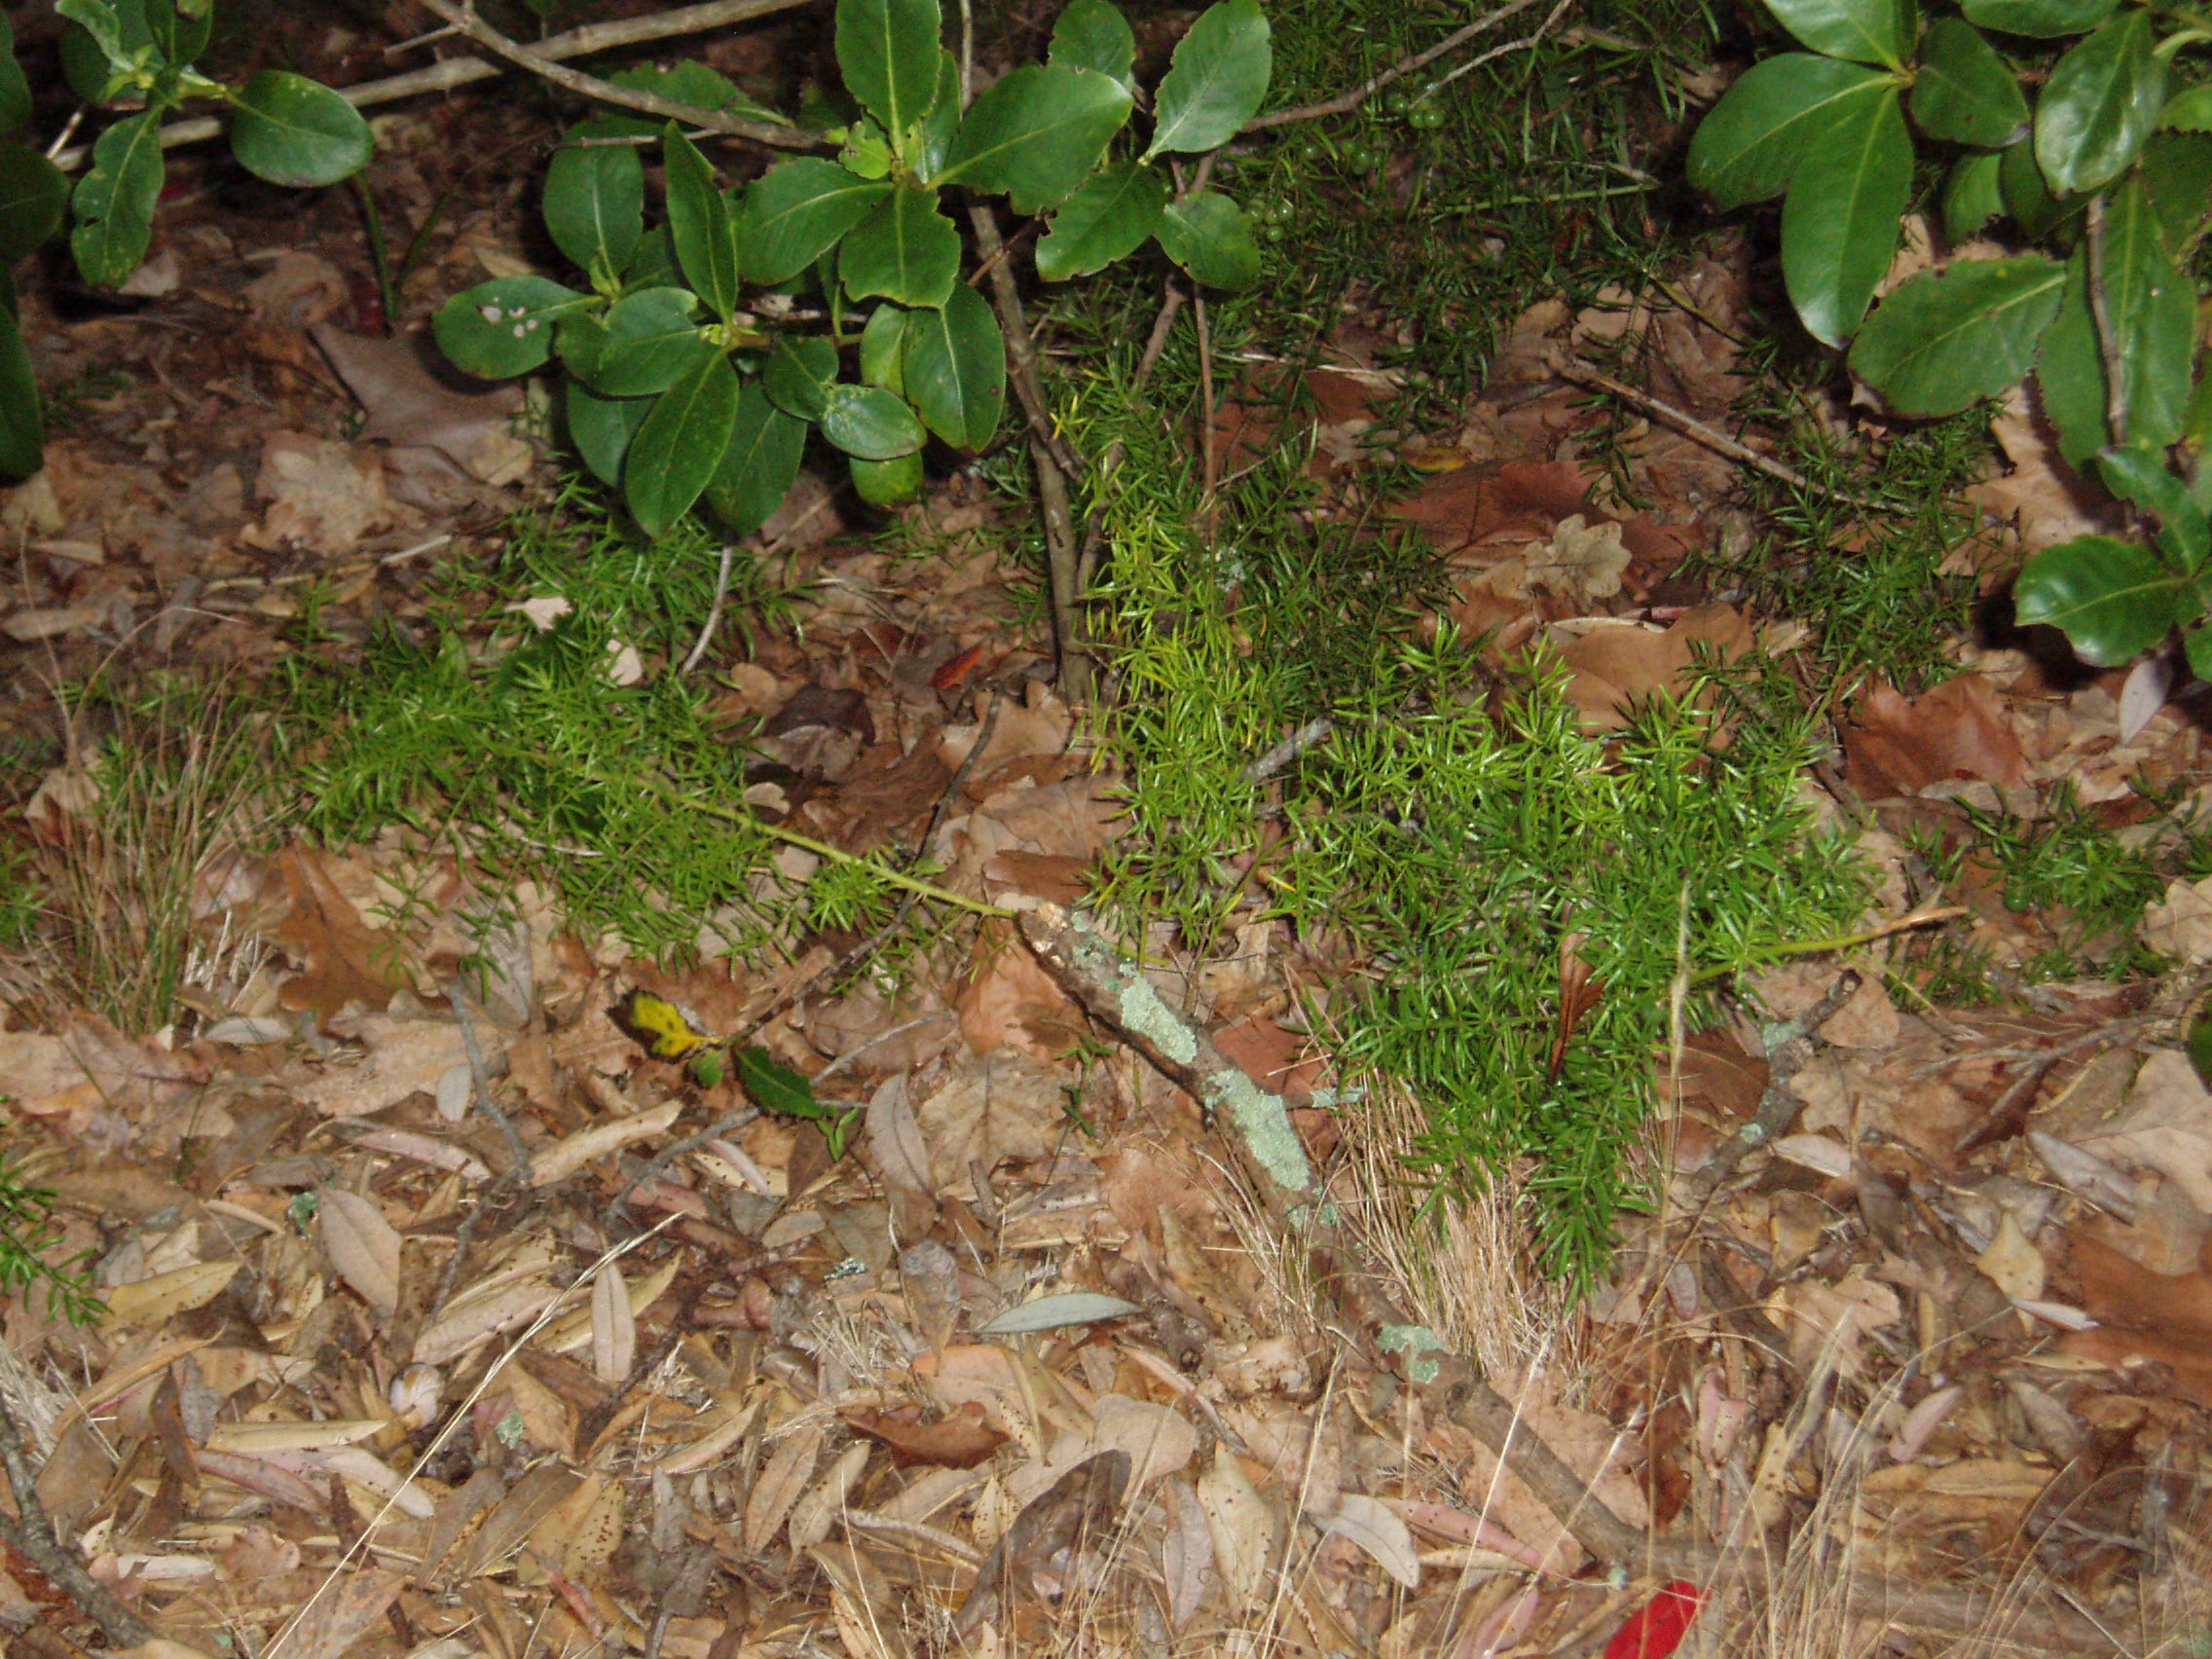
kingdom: Plantae
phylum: Tracheophyta
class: Liliopsida
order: Asparagales
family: Asparagaceae
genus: Asparagus
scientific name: Asparagus aethiopicus
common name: Sprenger's asparagus fern
